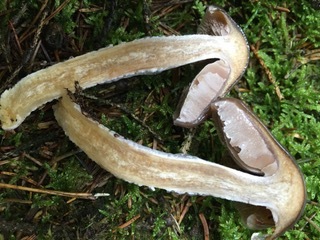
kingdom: Fungi
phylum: Basidiomycota
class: Agaricomycetes
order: Agaricales
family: Cortinariaceae
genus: Cortinarius
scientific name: Cortinarius stillatitius
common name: honningduftende slørhat
